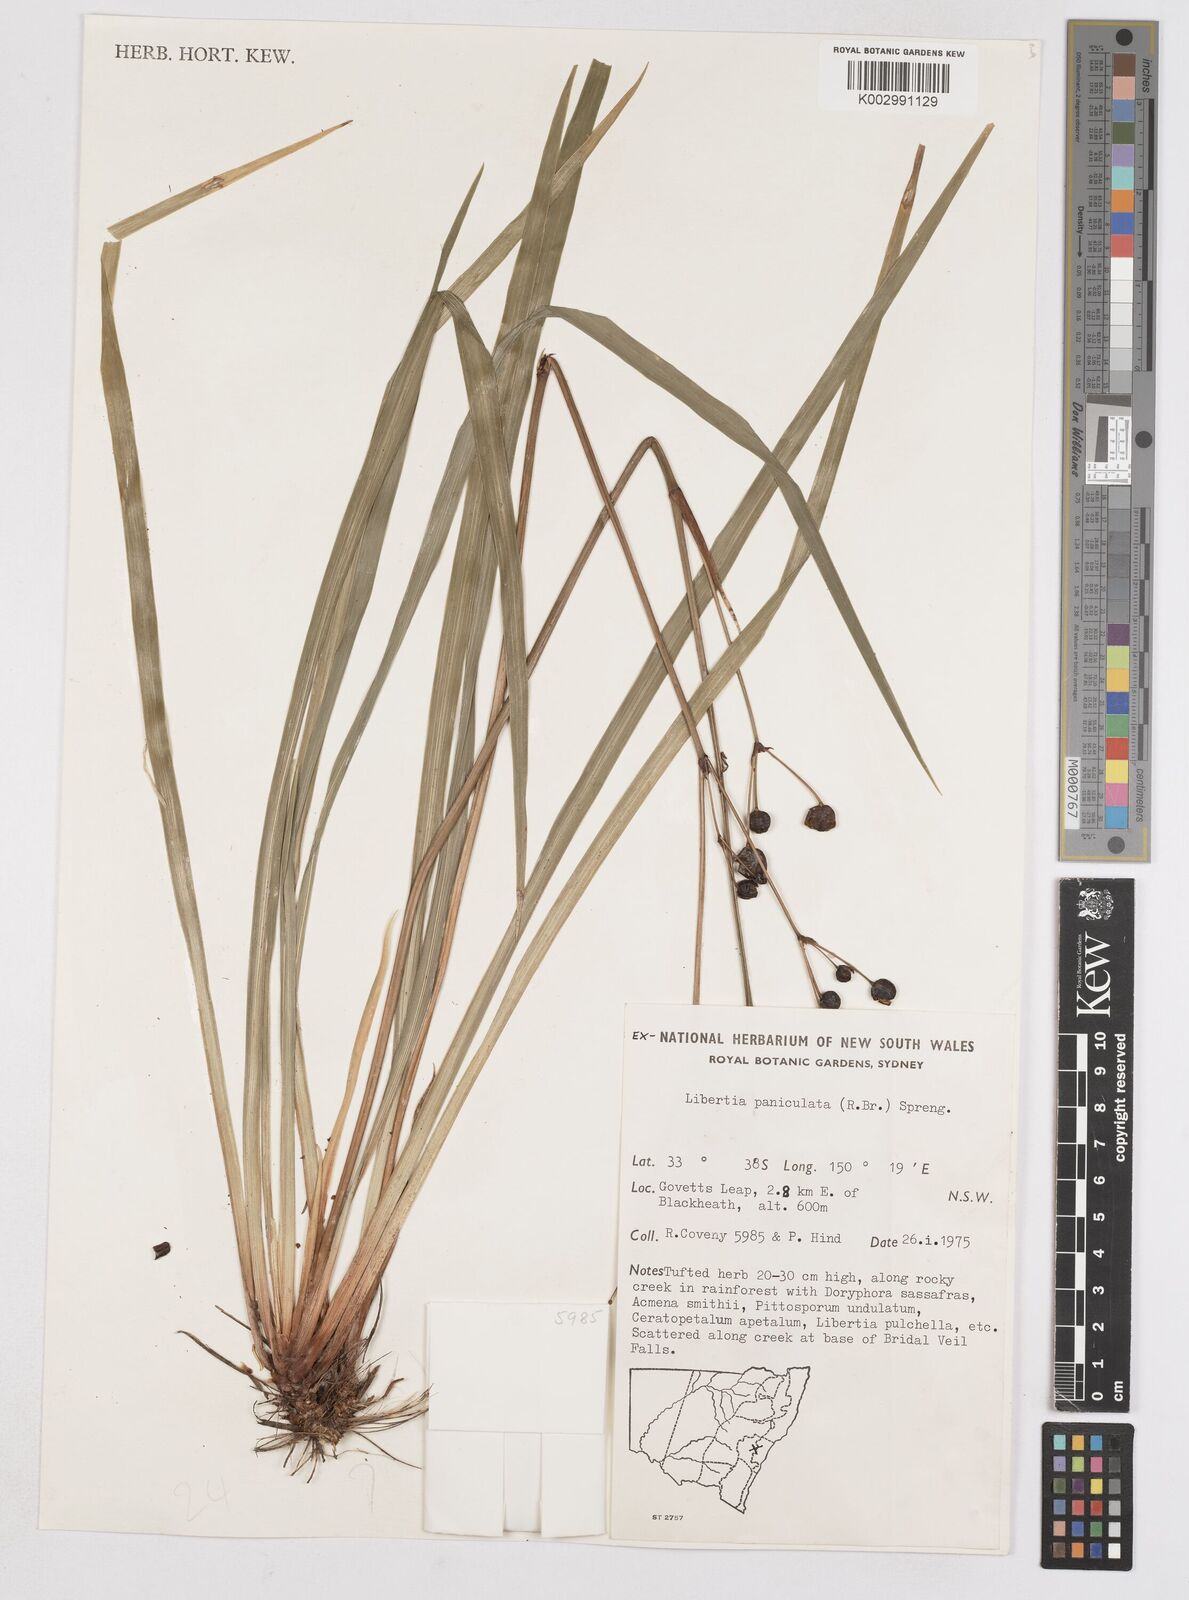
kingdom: Plantae
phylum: Tracheophyta
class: Liliopsida
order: Asparagales
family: Iridaceae
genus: Libertia
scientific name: Libertia paniculata
